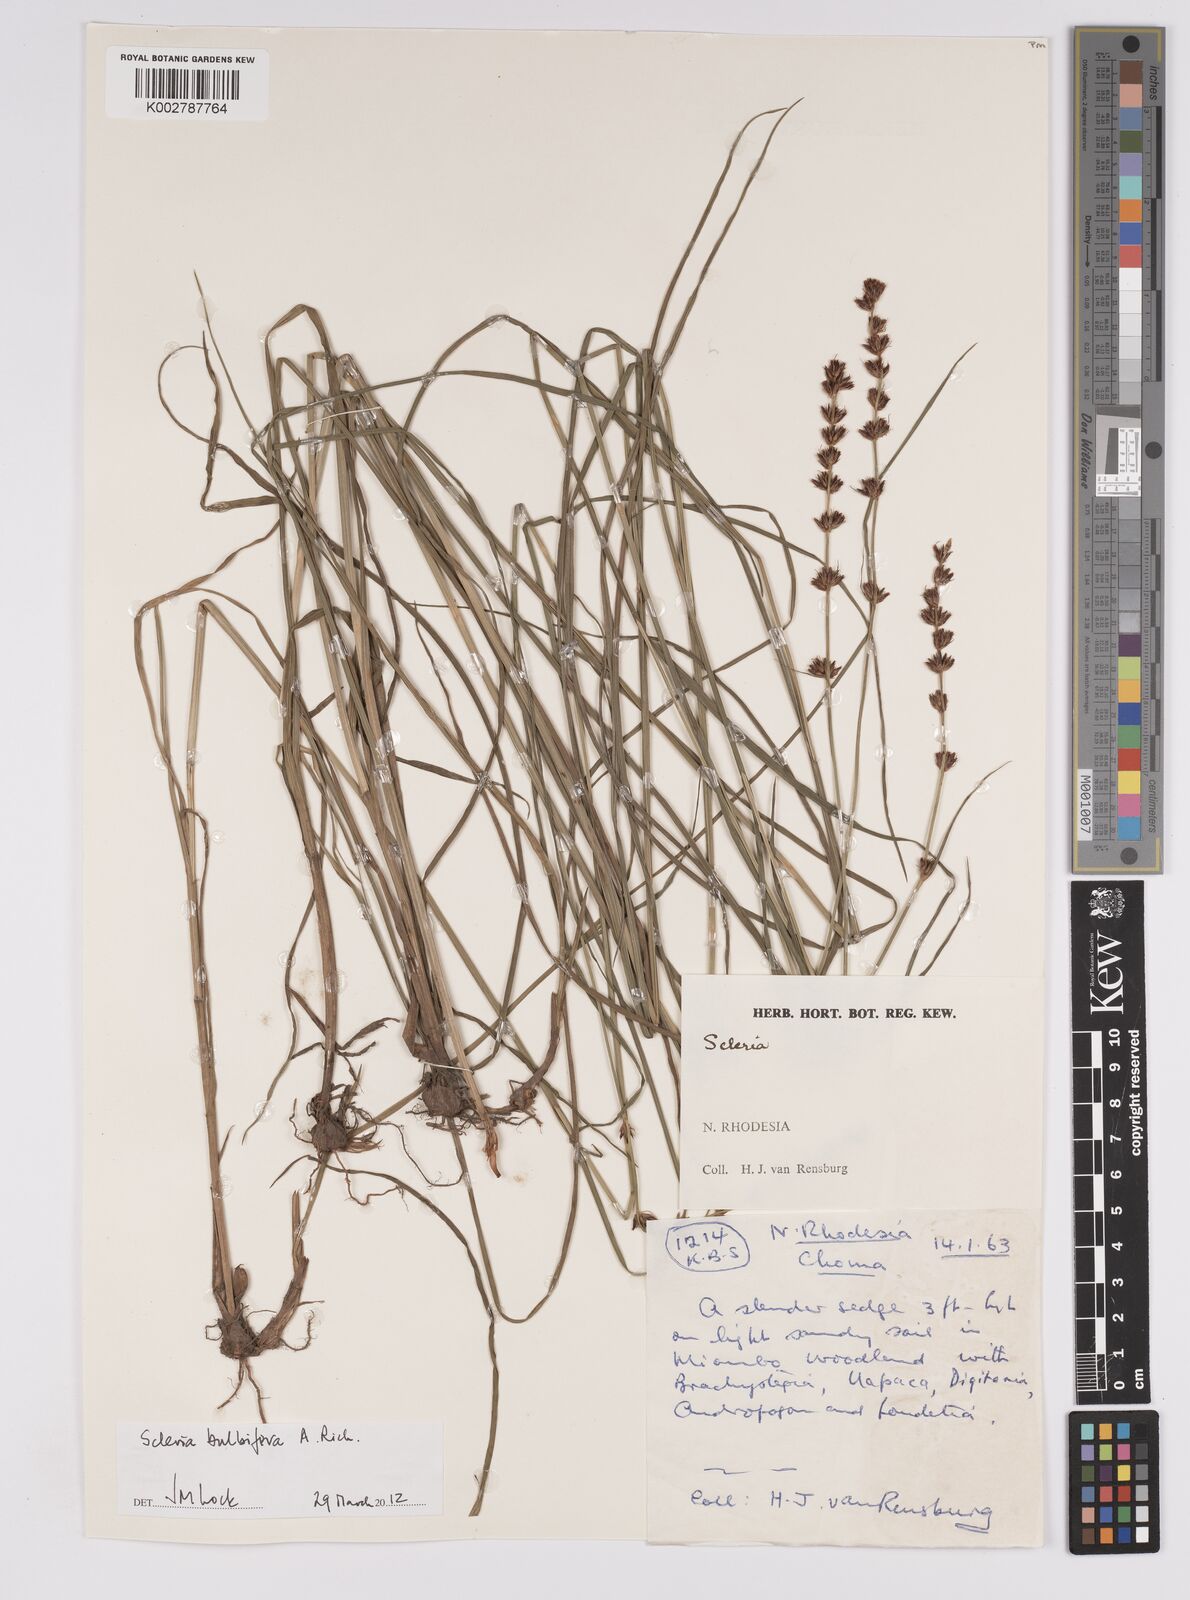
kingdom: Plantae
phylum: Tracheophyta
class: Liliopsida
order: Poales
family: Cyperaceae
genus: Scleria
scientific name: Scleria bulbifera
